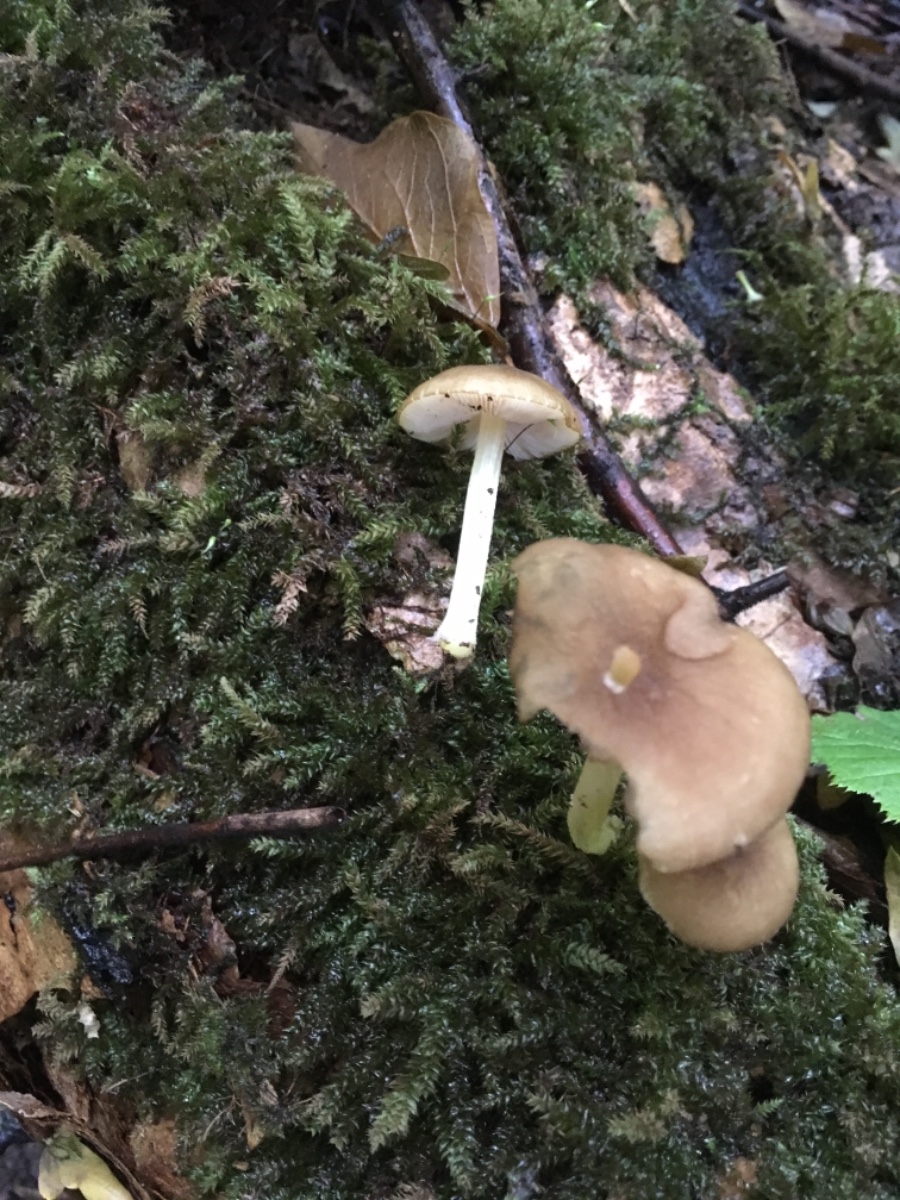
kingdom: Fungi
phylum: Basidiomycota
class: Agaricomycetes
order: Agaricales
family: Pluteaceae
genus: Pluteus
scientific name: Pluteus romellii
